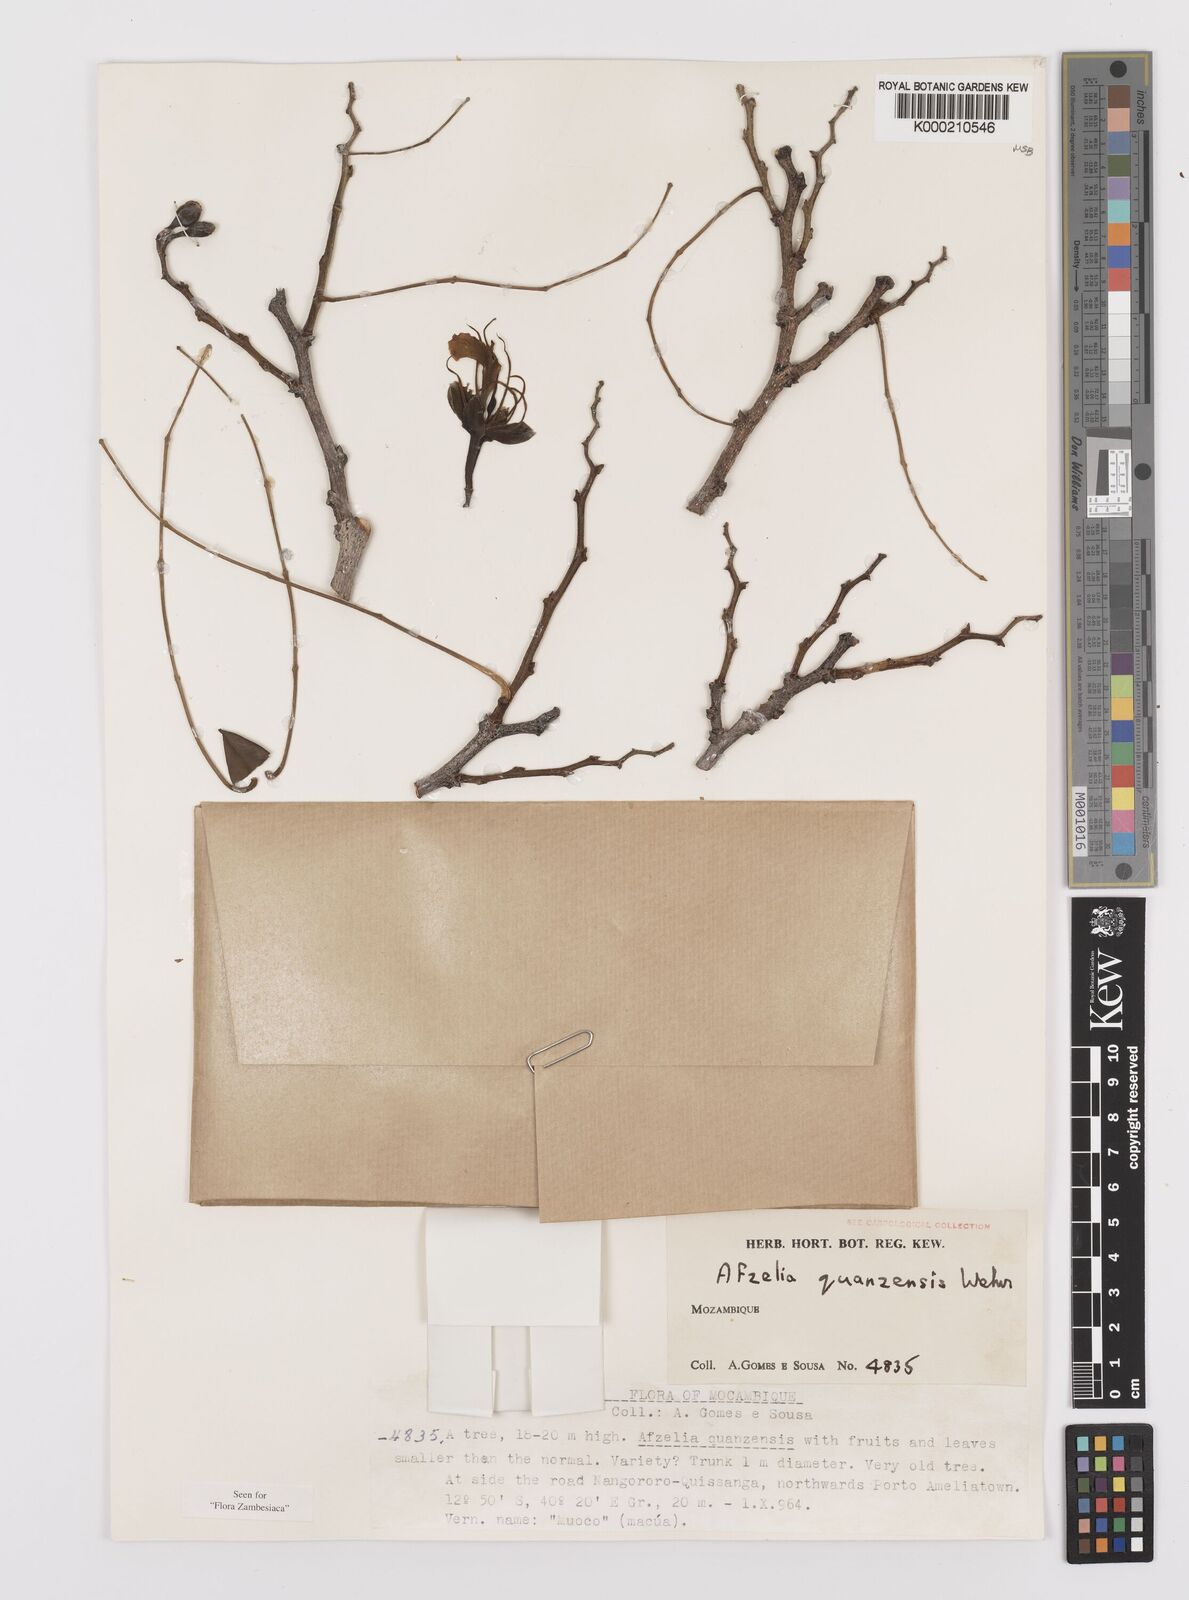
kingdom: Plantae
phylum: Tracheophyta
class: Magnoliopsida
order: Fabales
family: Fabaceae
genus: Afzelia
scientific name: Afzelia quanzensis
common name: Pod mahogany
